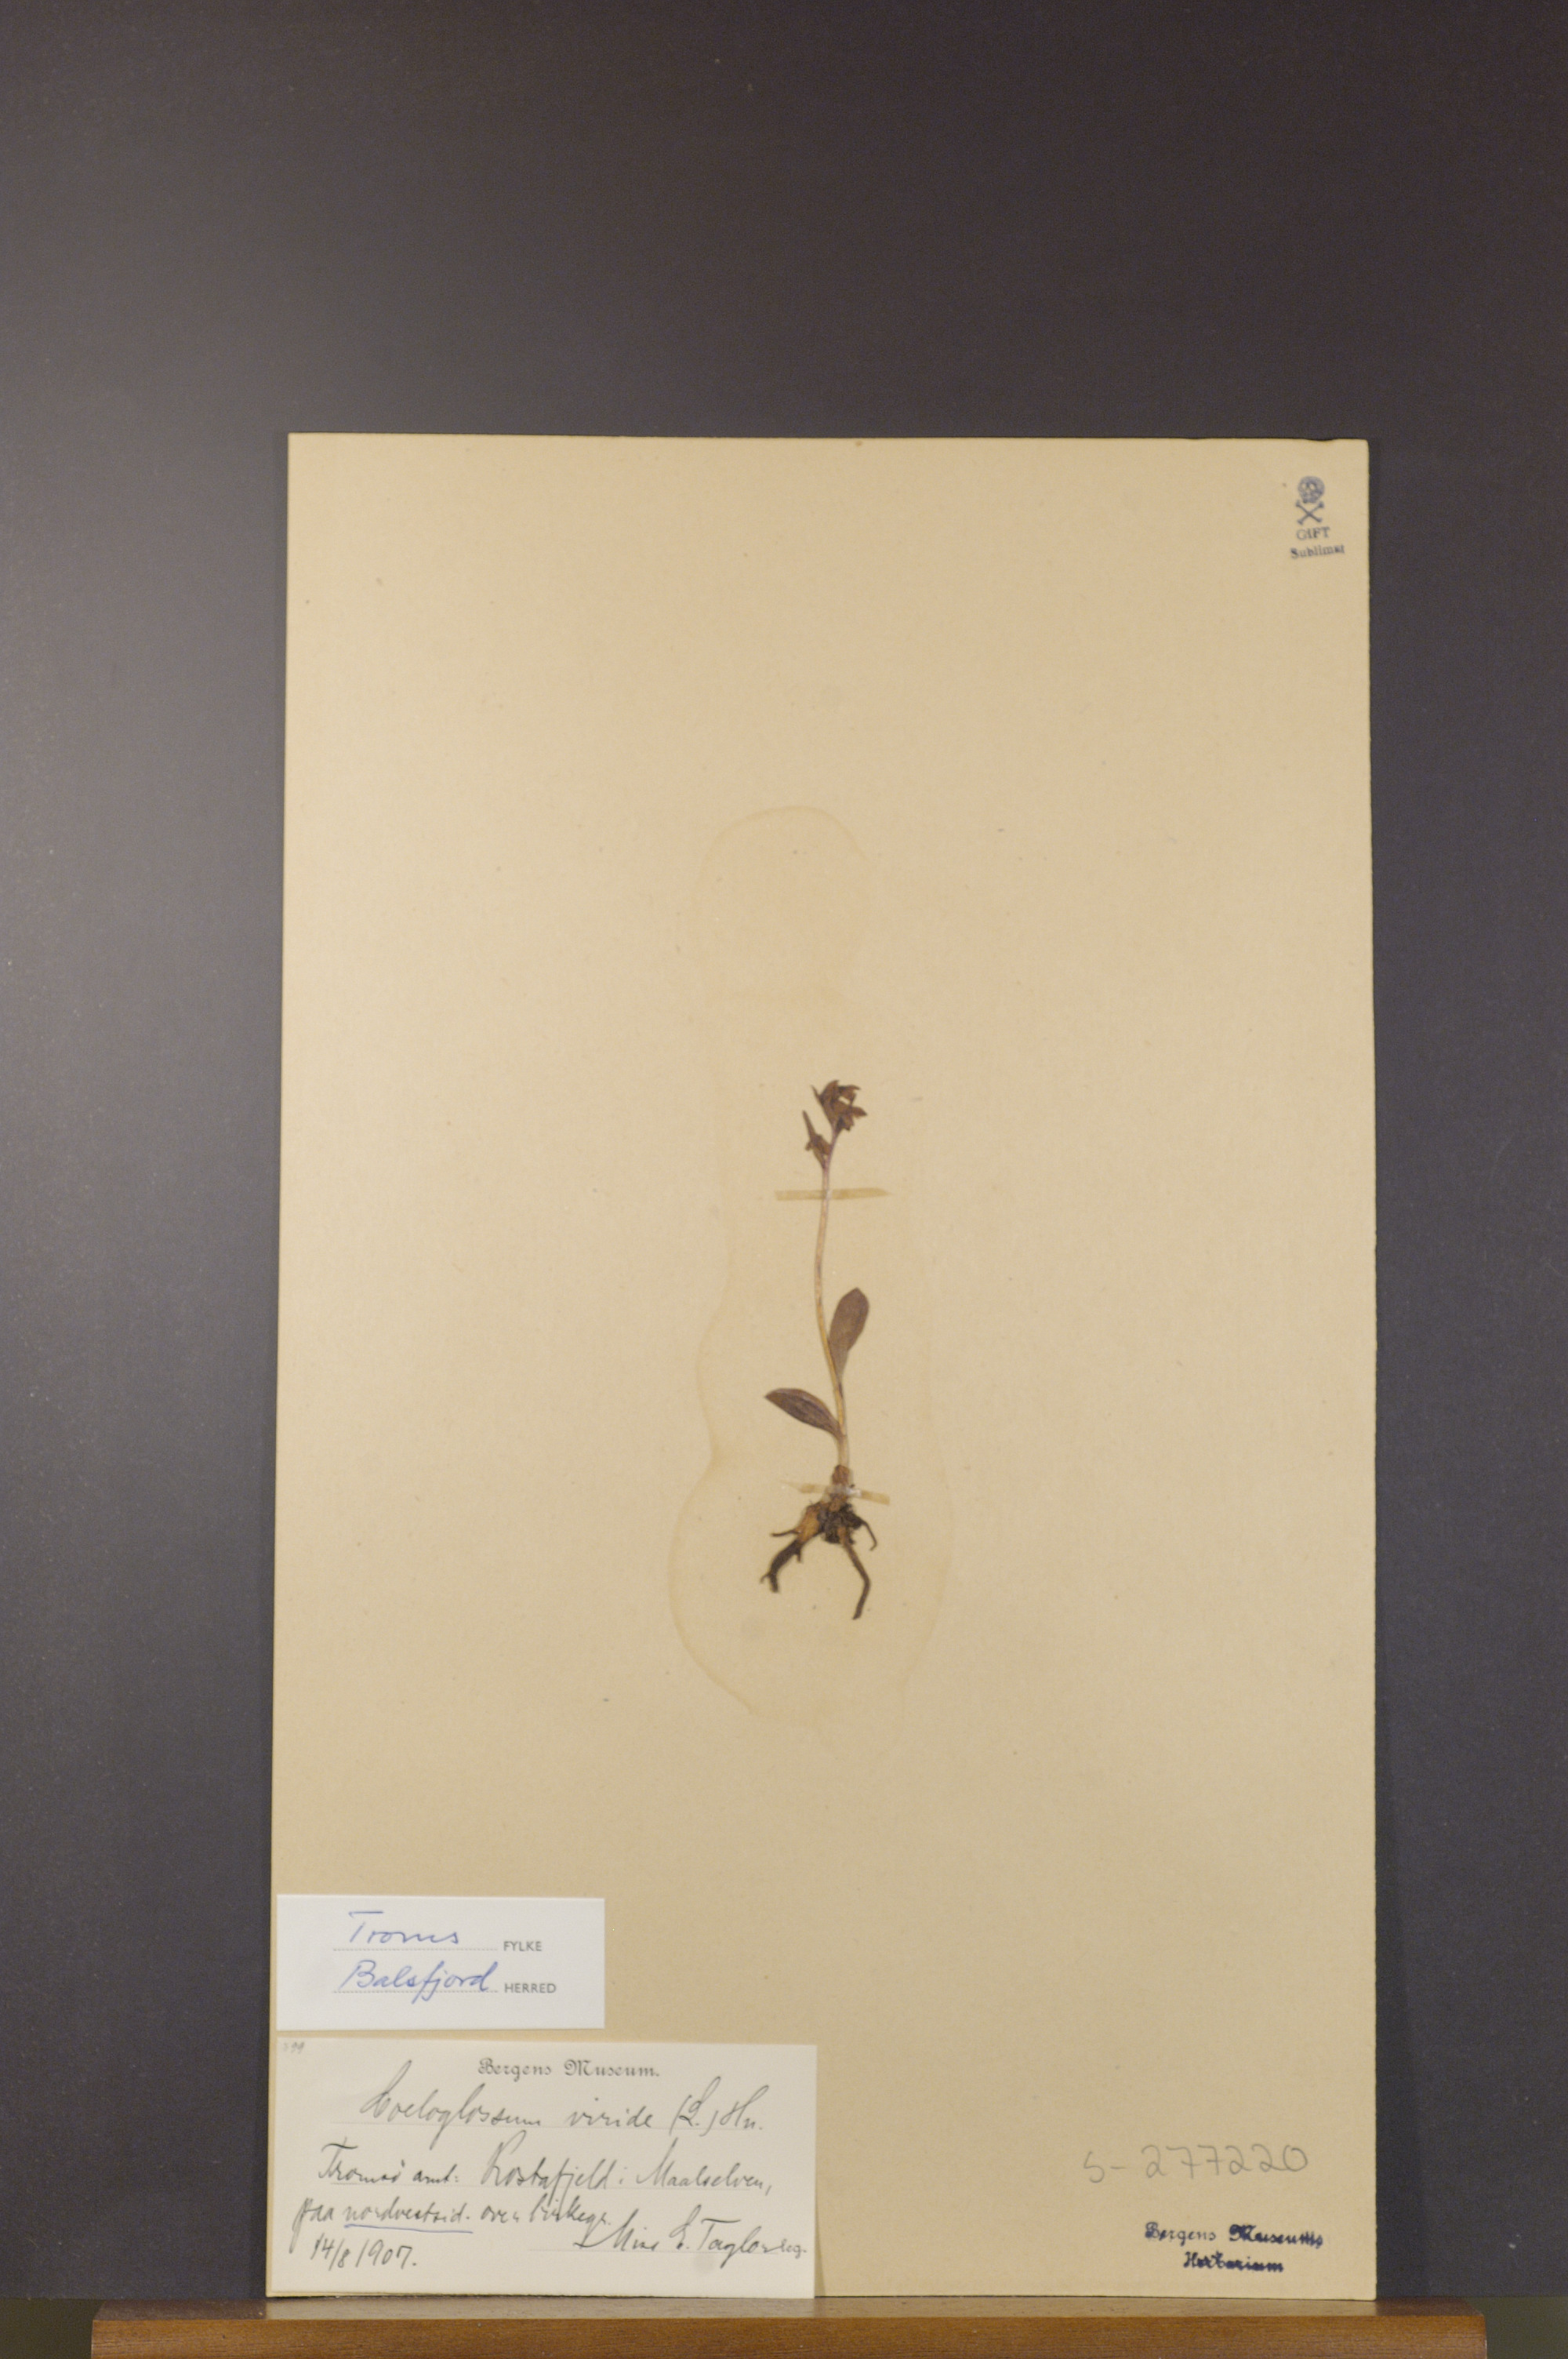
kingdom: Plantae
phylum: Tracheophyta
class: Liliopsida
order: Asparagales
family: Orchidaceae
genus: Dactylorhiza
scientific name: Dactylorhiza viridis
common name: Longbract frog orchid
